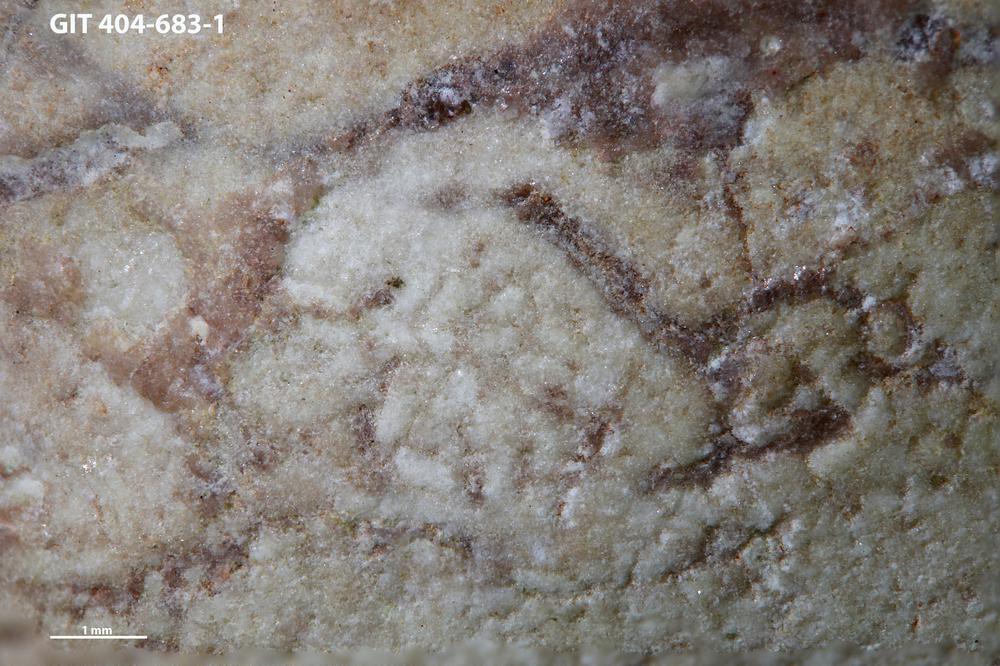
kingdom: Animalia
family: Coprulidae
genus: Coprulus
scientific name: Coprulus
